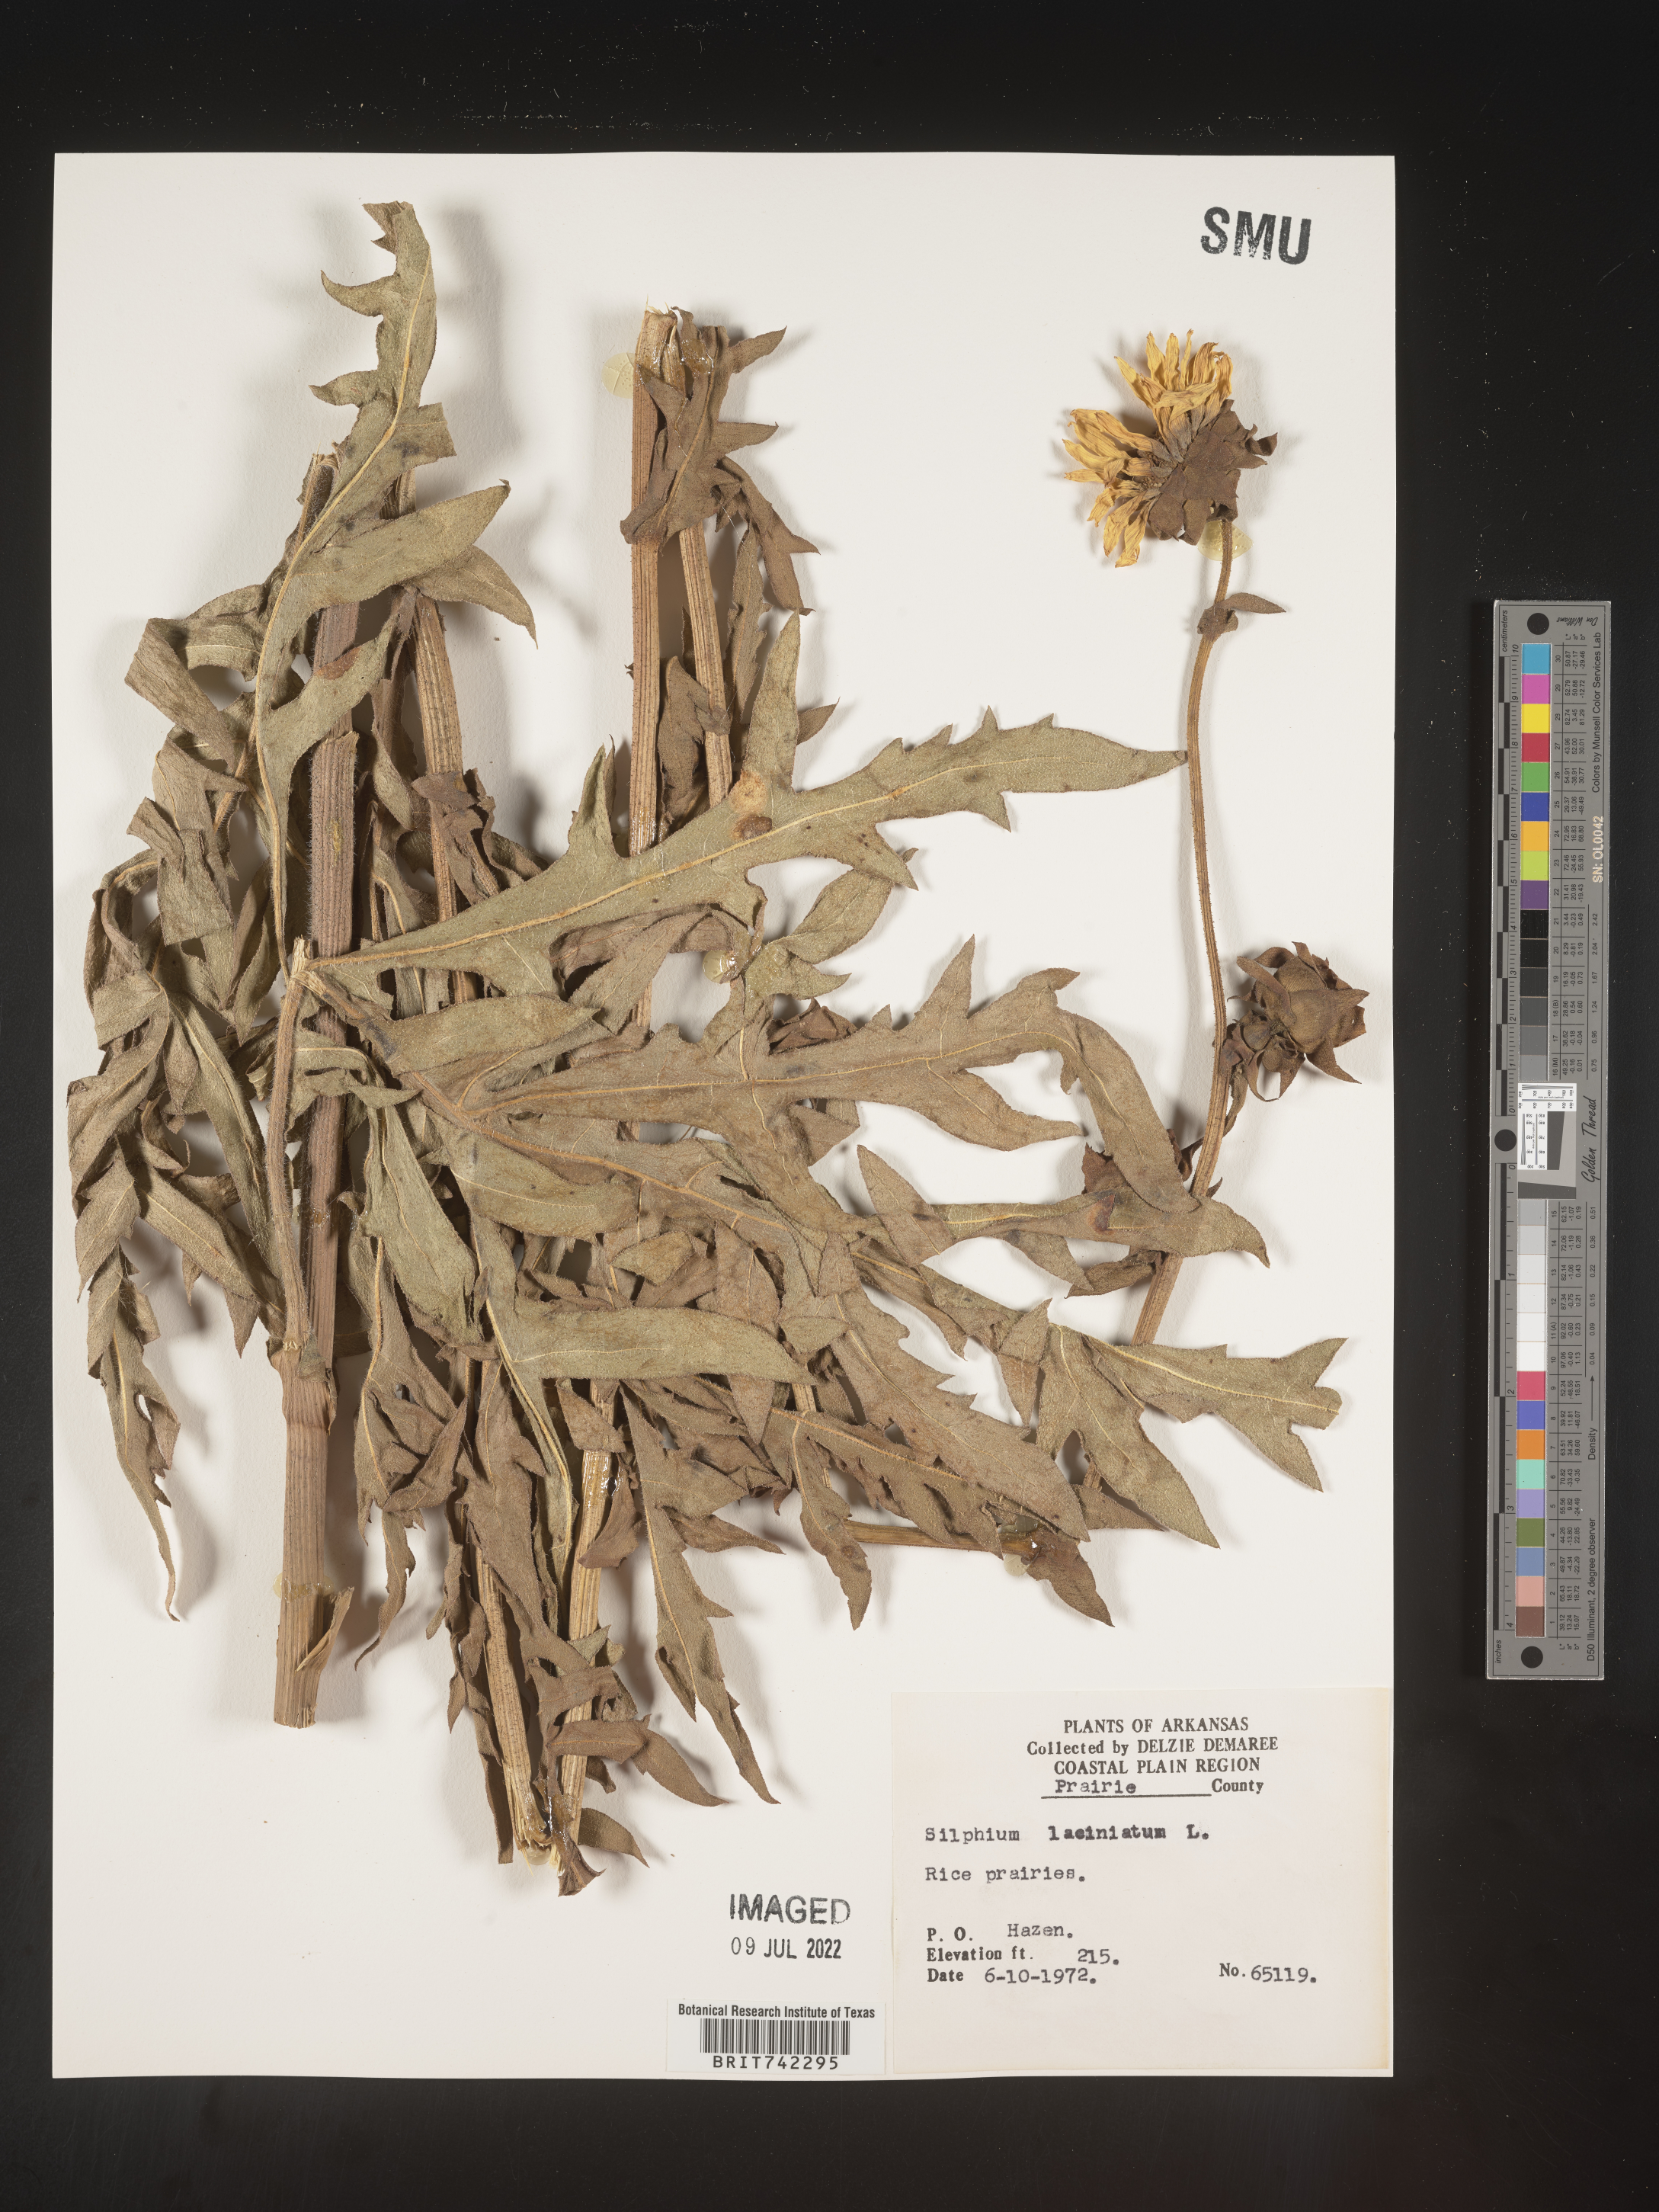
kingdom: Plantae
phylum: Tracheophyta
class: Magnoliopsida
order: Asterales
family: Asteraceae
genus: Silphium
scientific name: Silphium laciniatum
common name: Polarplant
